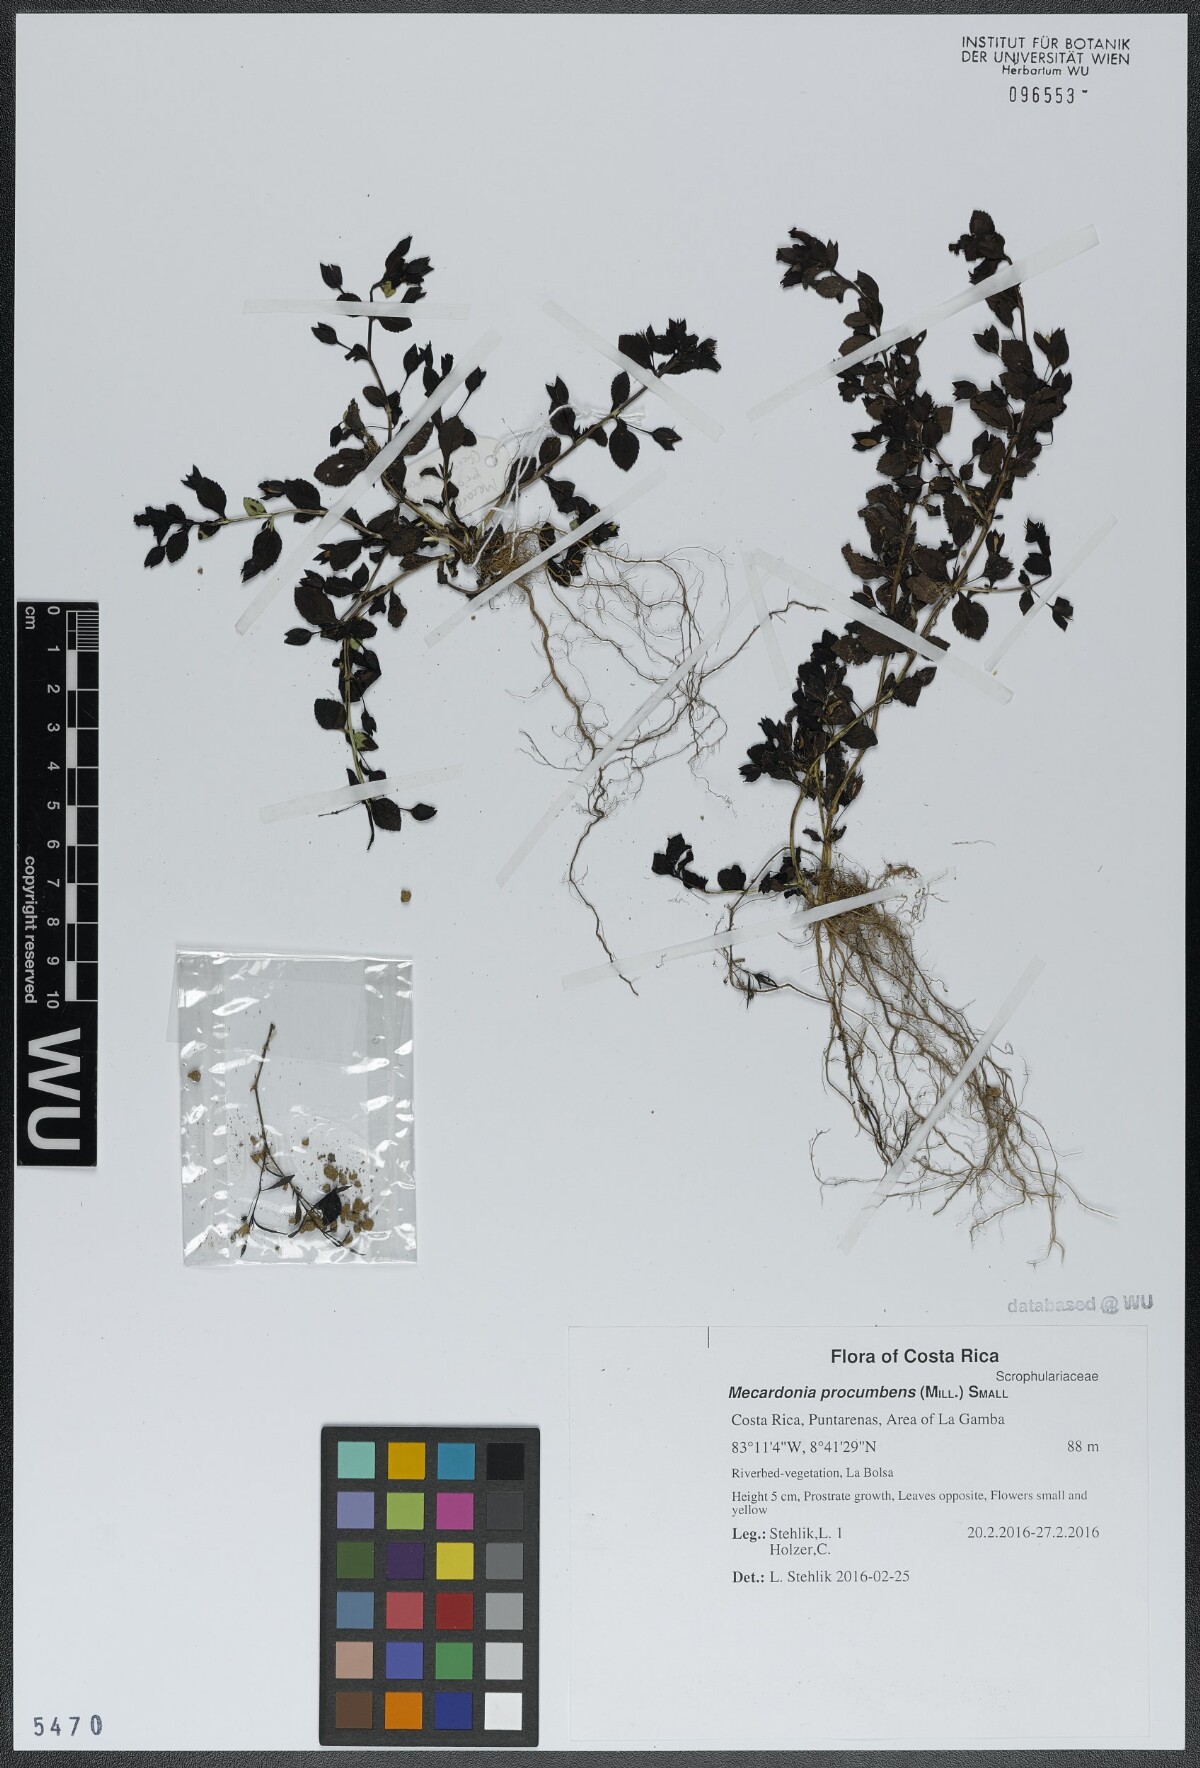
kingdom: Plantae
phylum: Tracheophyta
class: Magnoliopsida
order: Lamiales
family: Plantaginaceae
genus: Mecardonia
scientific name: Mecardonia procumbens
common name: Baby jump-up
